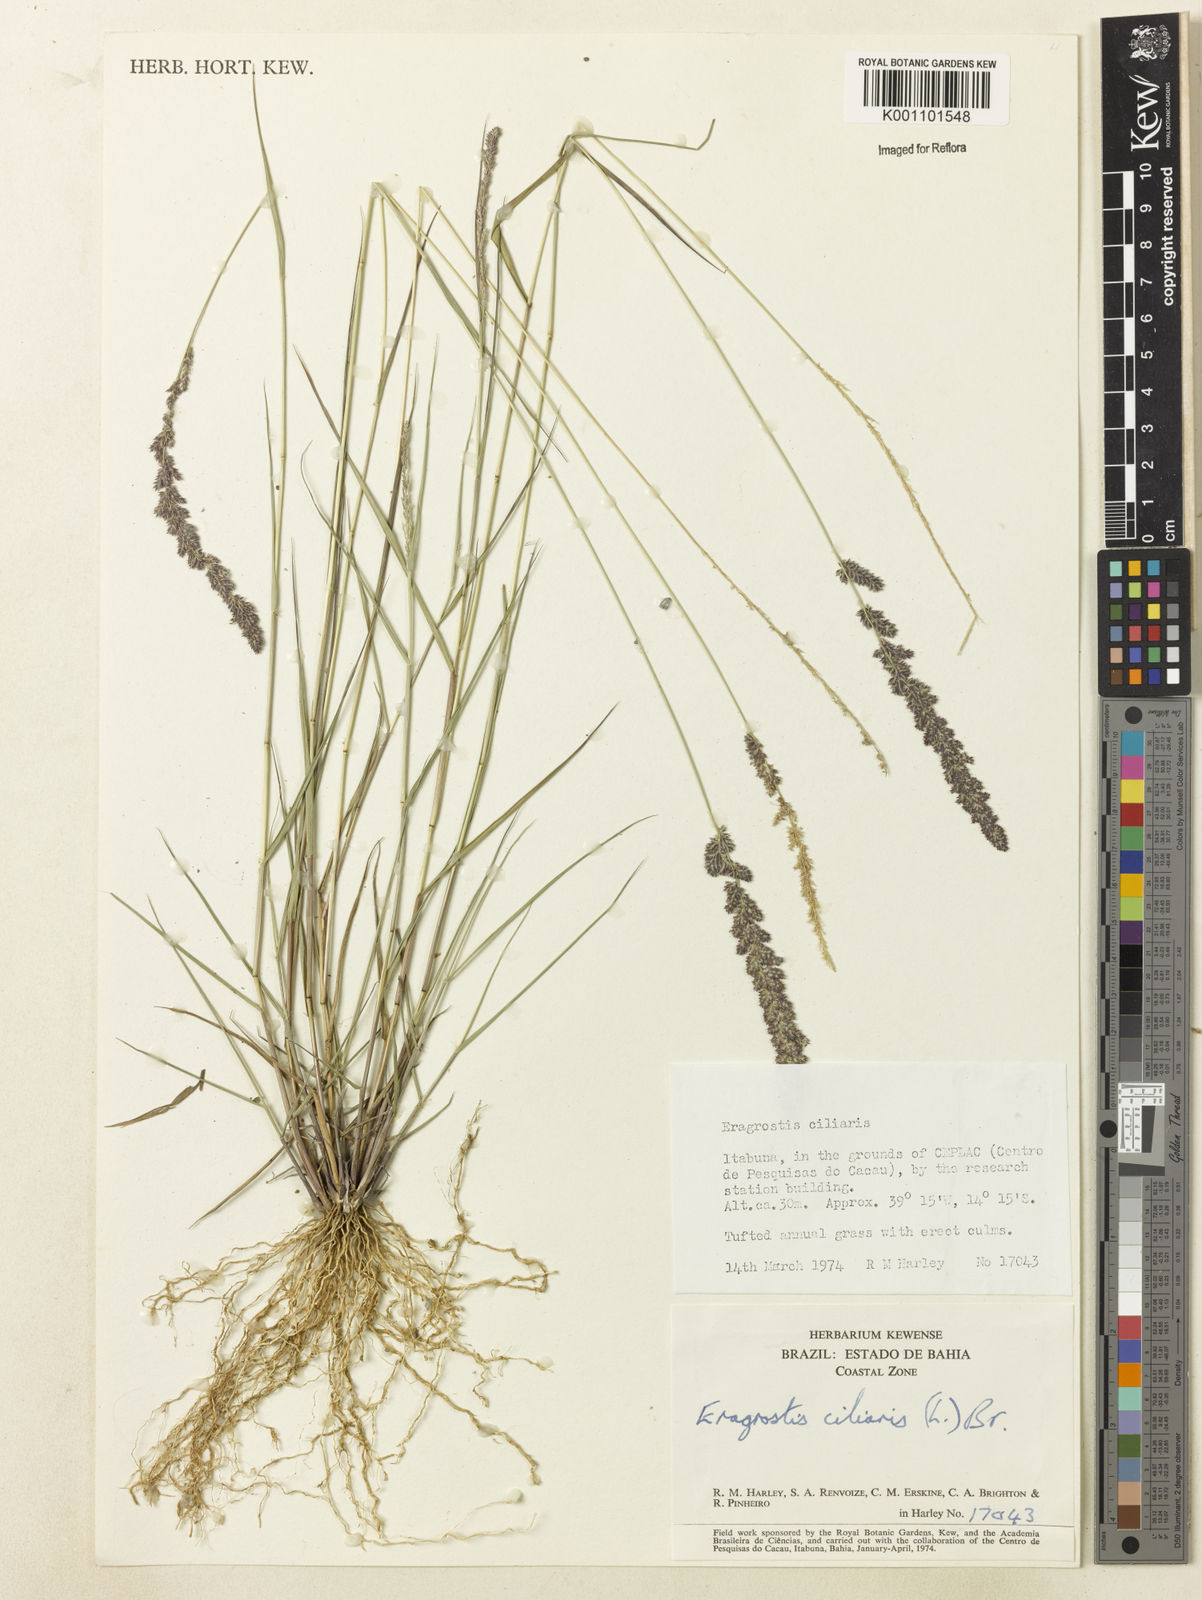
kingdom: Plantae
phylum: Tracheophyta
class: Liliopsida
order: Poales
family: Poaceae
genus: Eragrostis
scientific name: Eragrostis ciliaris
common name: Gophertail lovegrass
